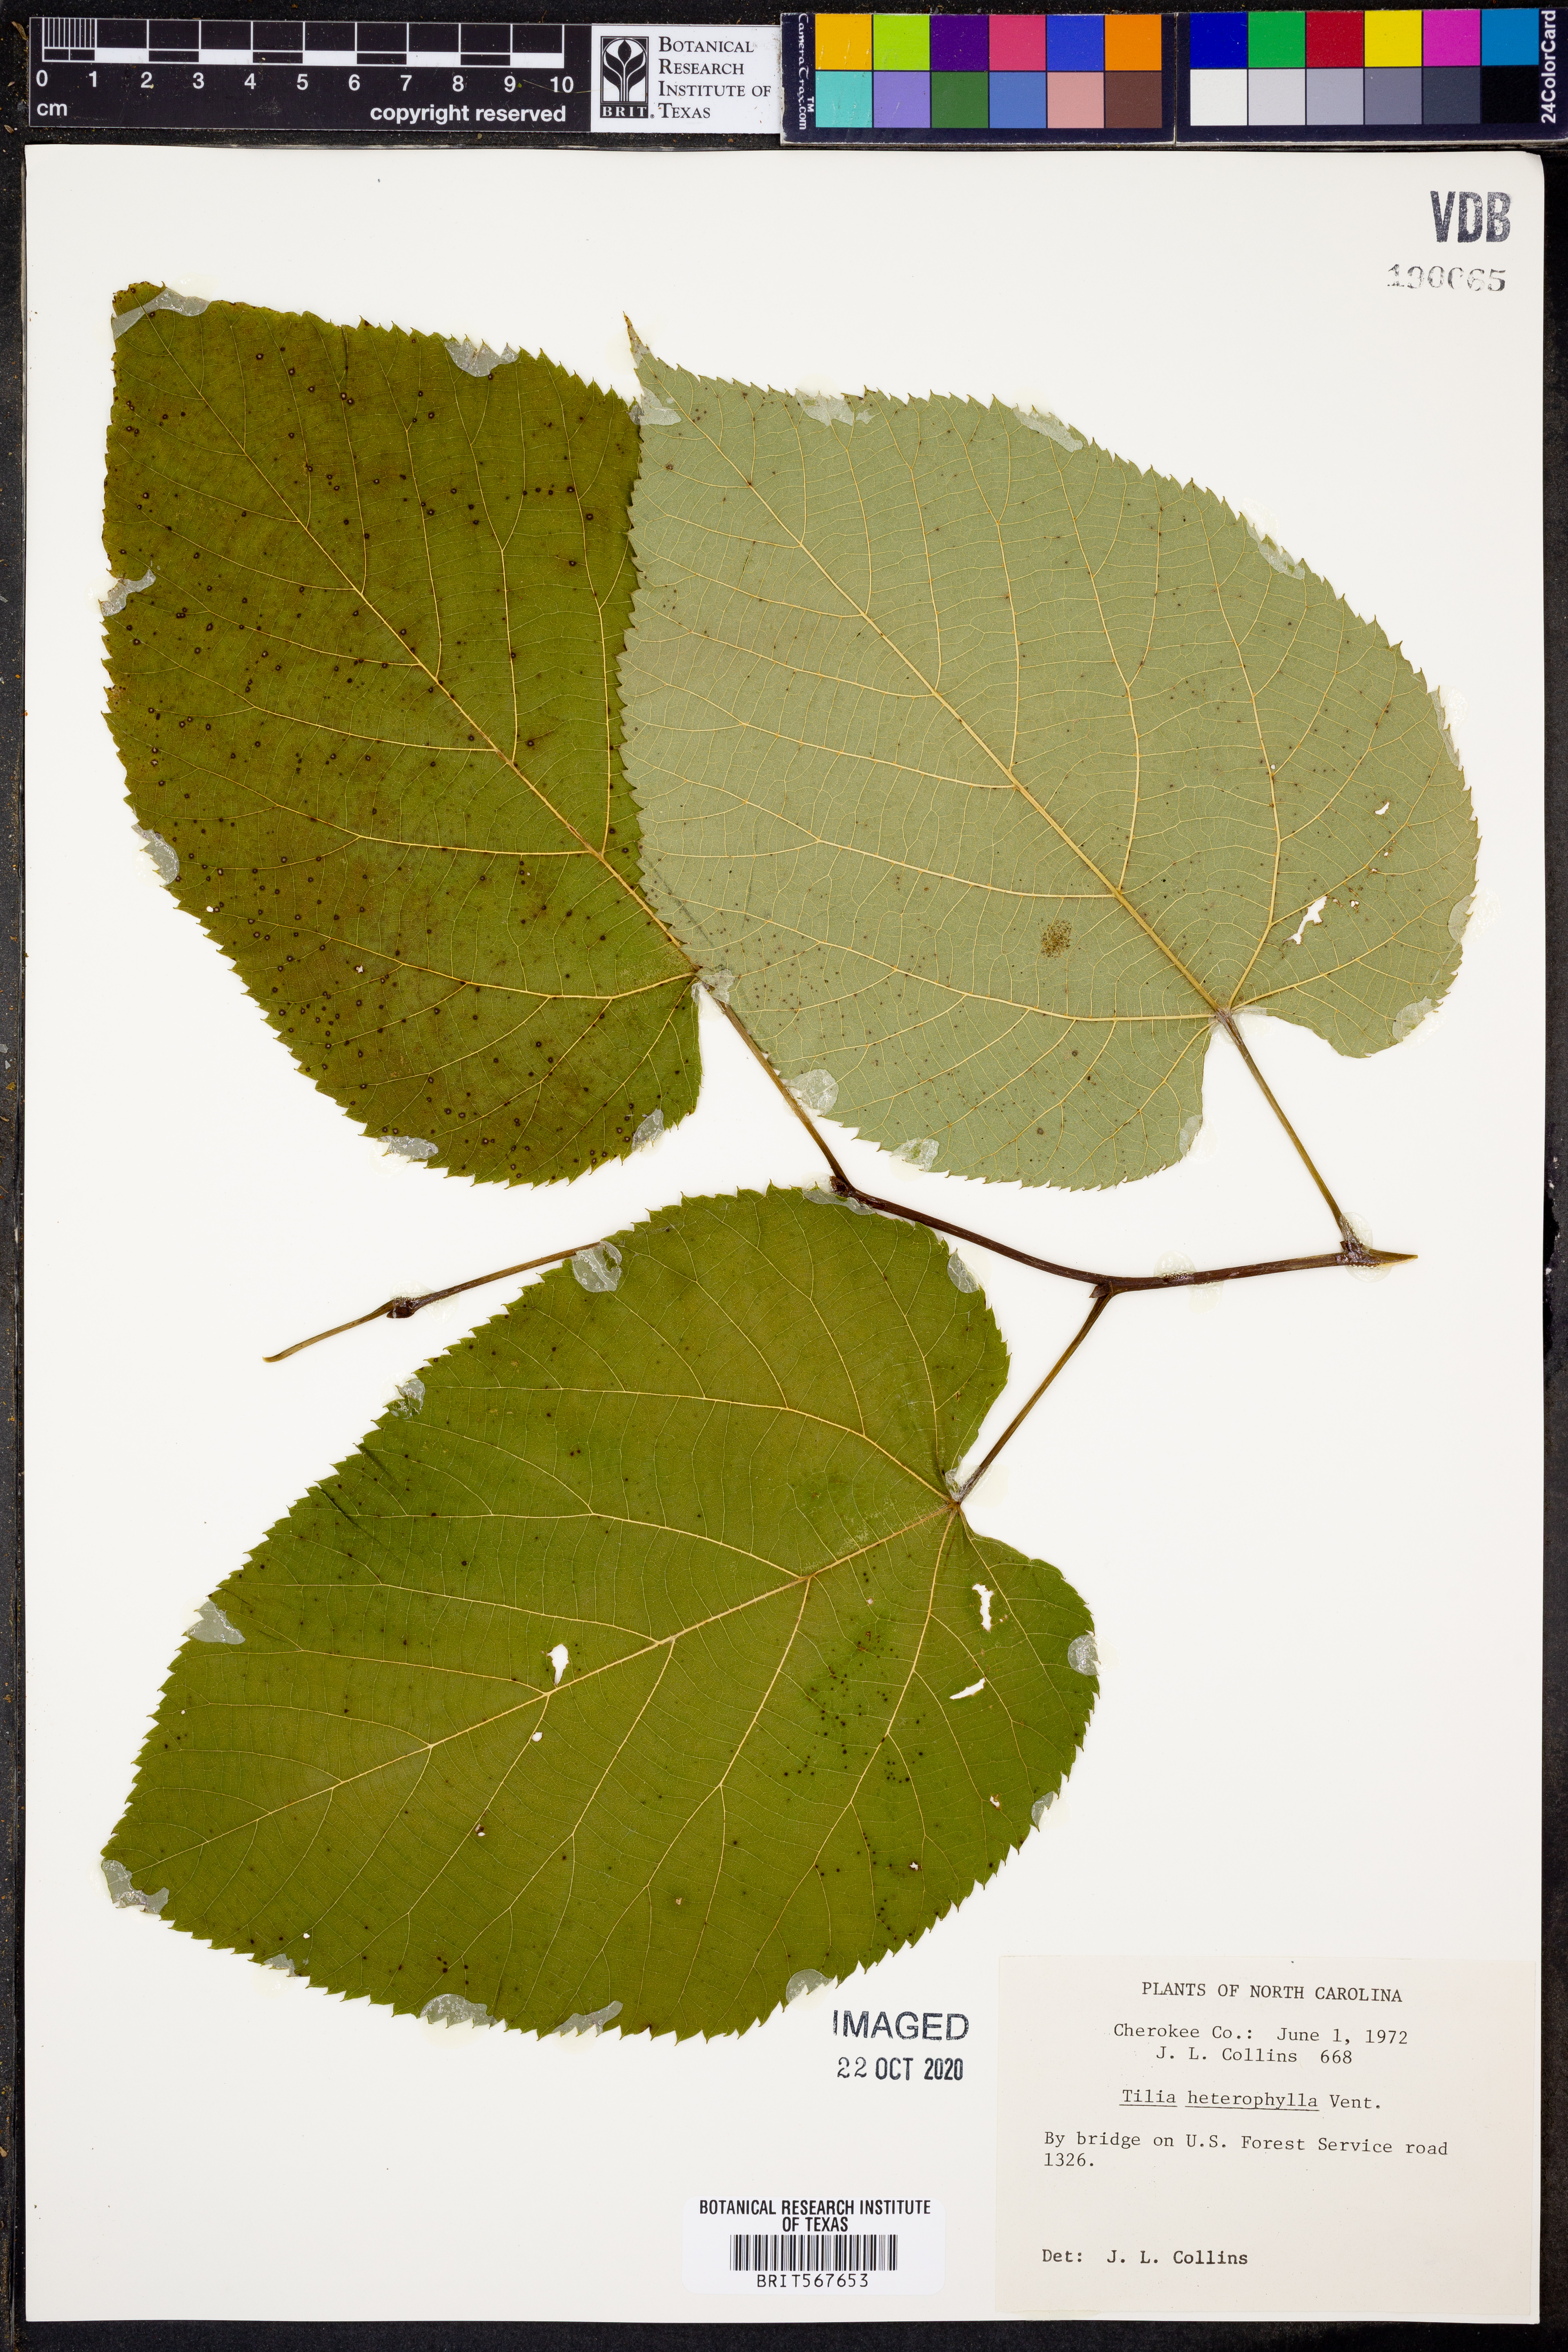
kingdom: Plantae
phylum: Tracheophyta
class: Magnoliopsida
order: Malvales
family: Malvaceae
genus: Tilia
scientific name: Tilia americana
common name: Basswood
